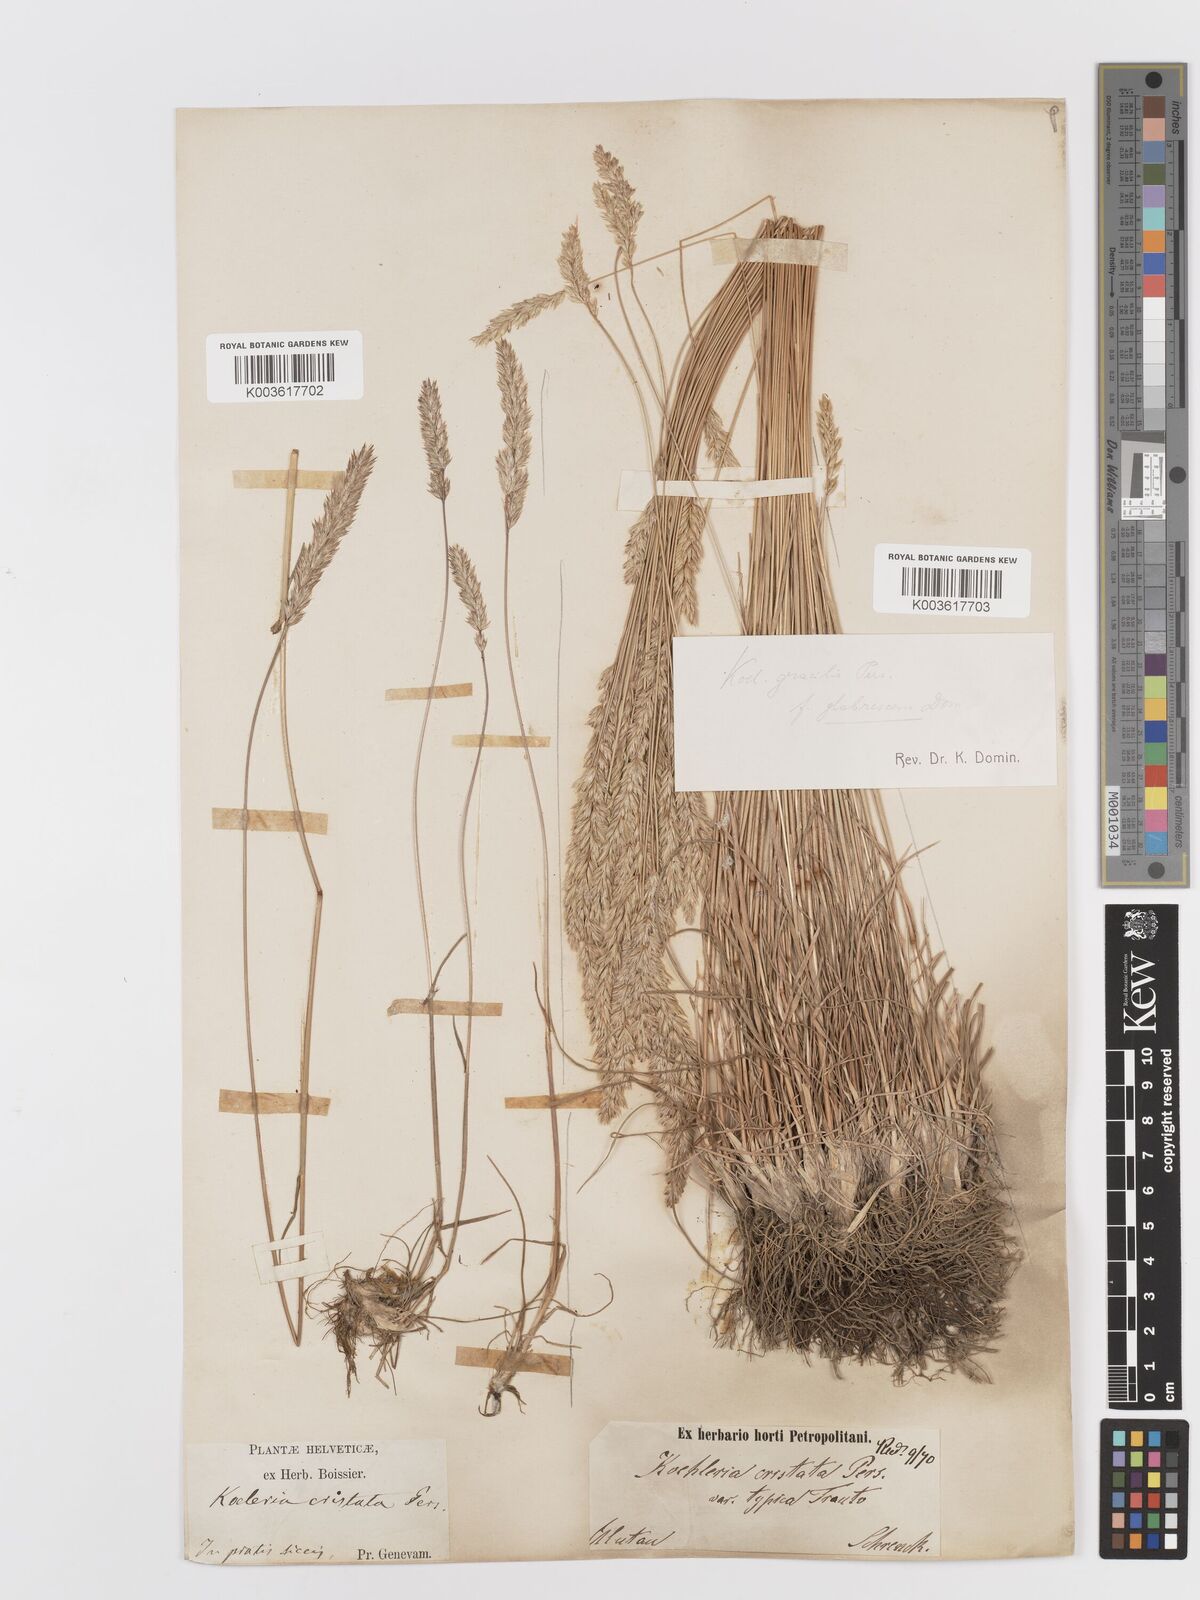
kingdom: Plantae
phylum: Tracheophyta
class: Liliopsida
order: Poales
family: Poaceae
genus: Koeleria
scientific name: Koeleria pyramidata
